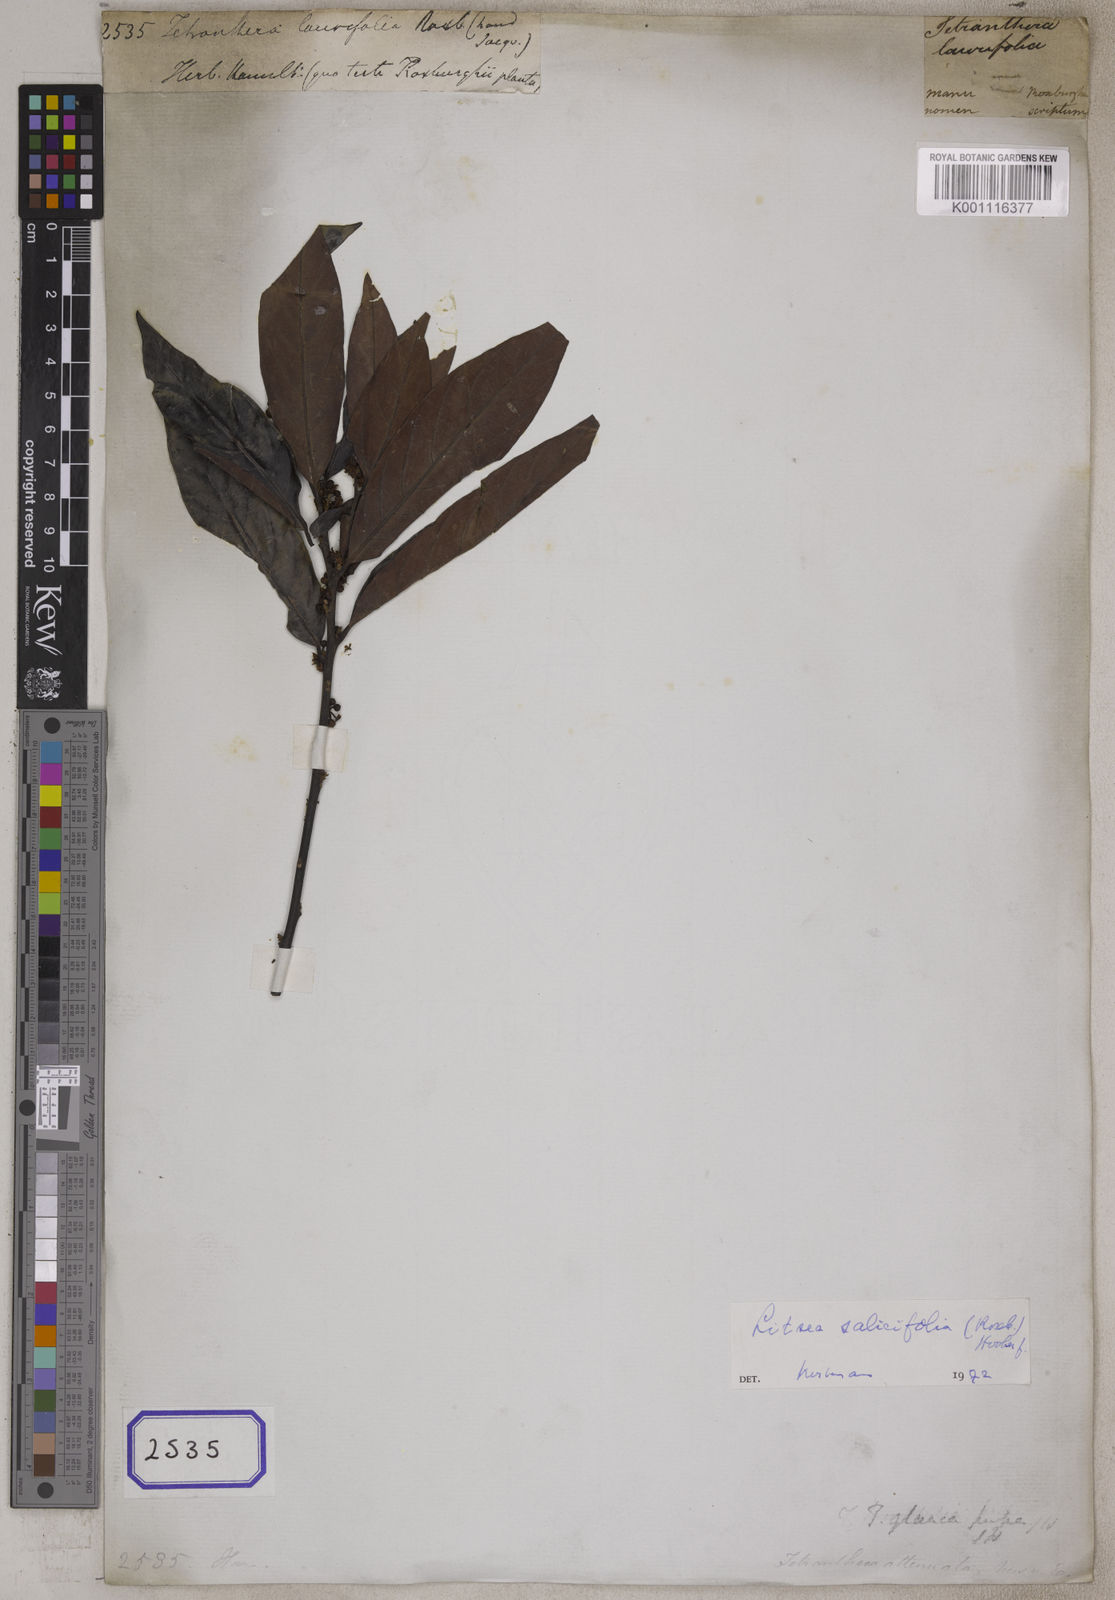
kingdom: Plantae
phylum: Tracheophyta
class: Magnoliopsida
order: Laurales
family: Lauraceae
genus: Litsea
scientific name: Litsea
